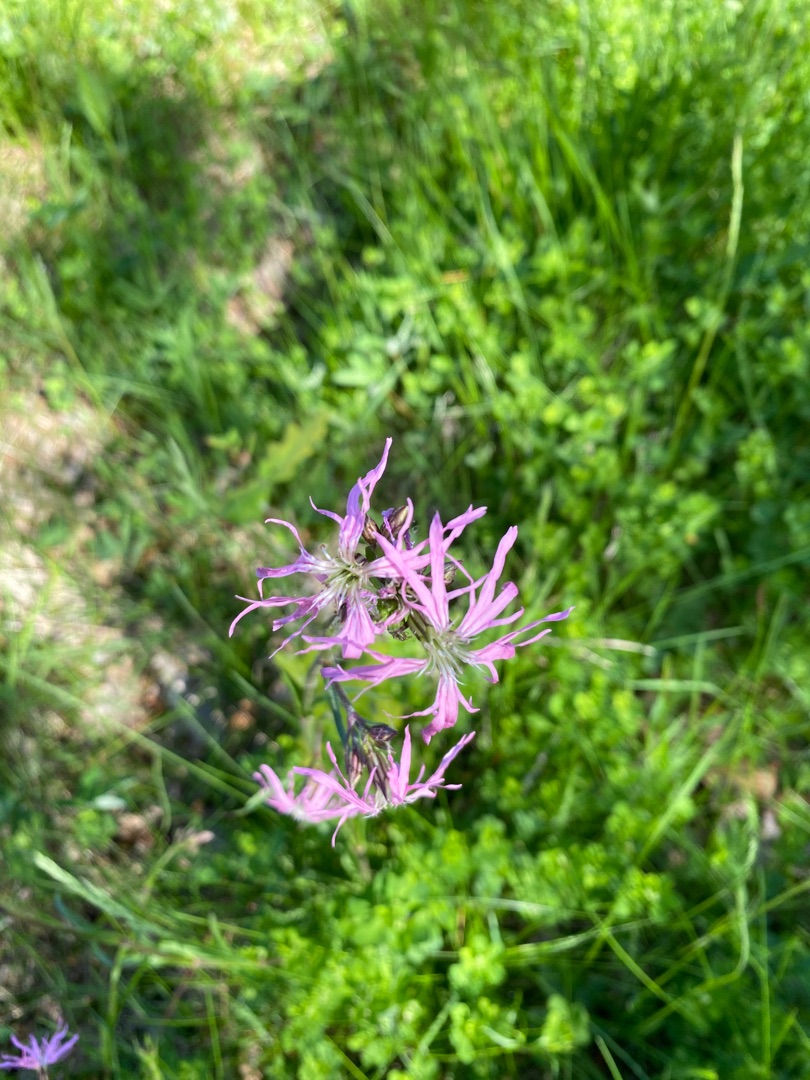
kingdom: Plantae
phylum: Tracheophyta
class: Magnoliopsida
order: Caryophyllales
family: Caryophyllaceae
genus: Silene
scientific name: Silene flos-cuculi
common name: Trævlekrone
